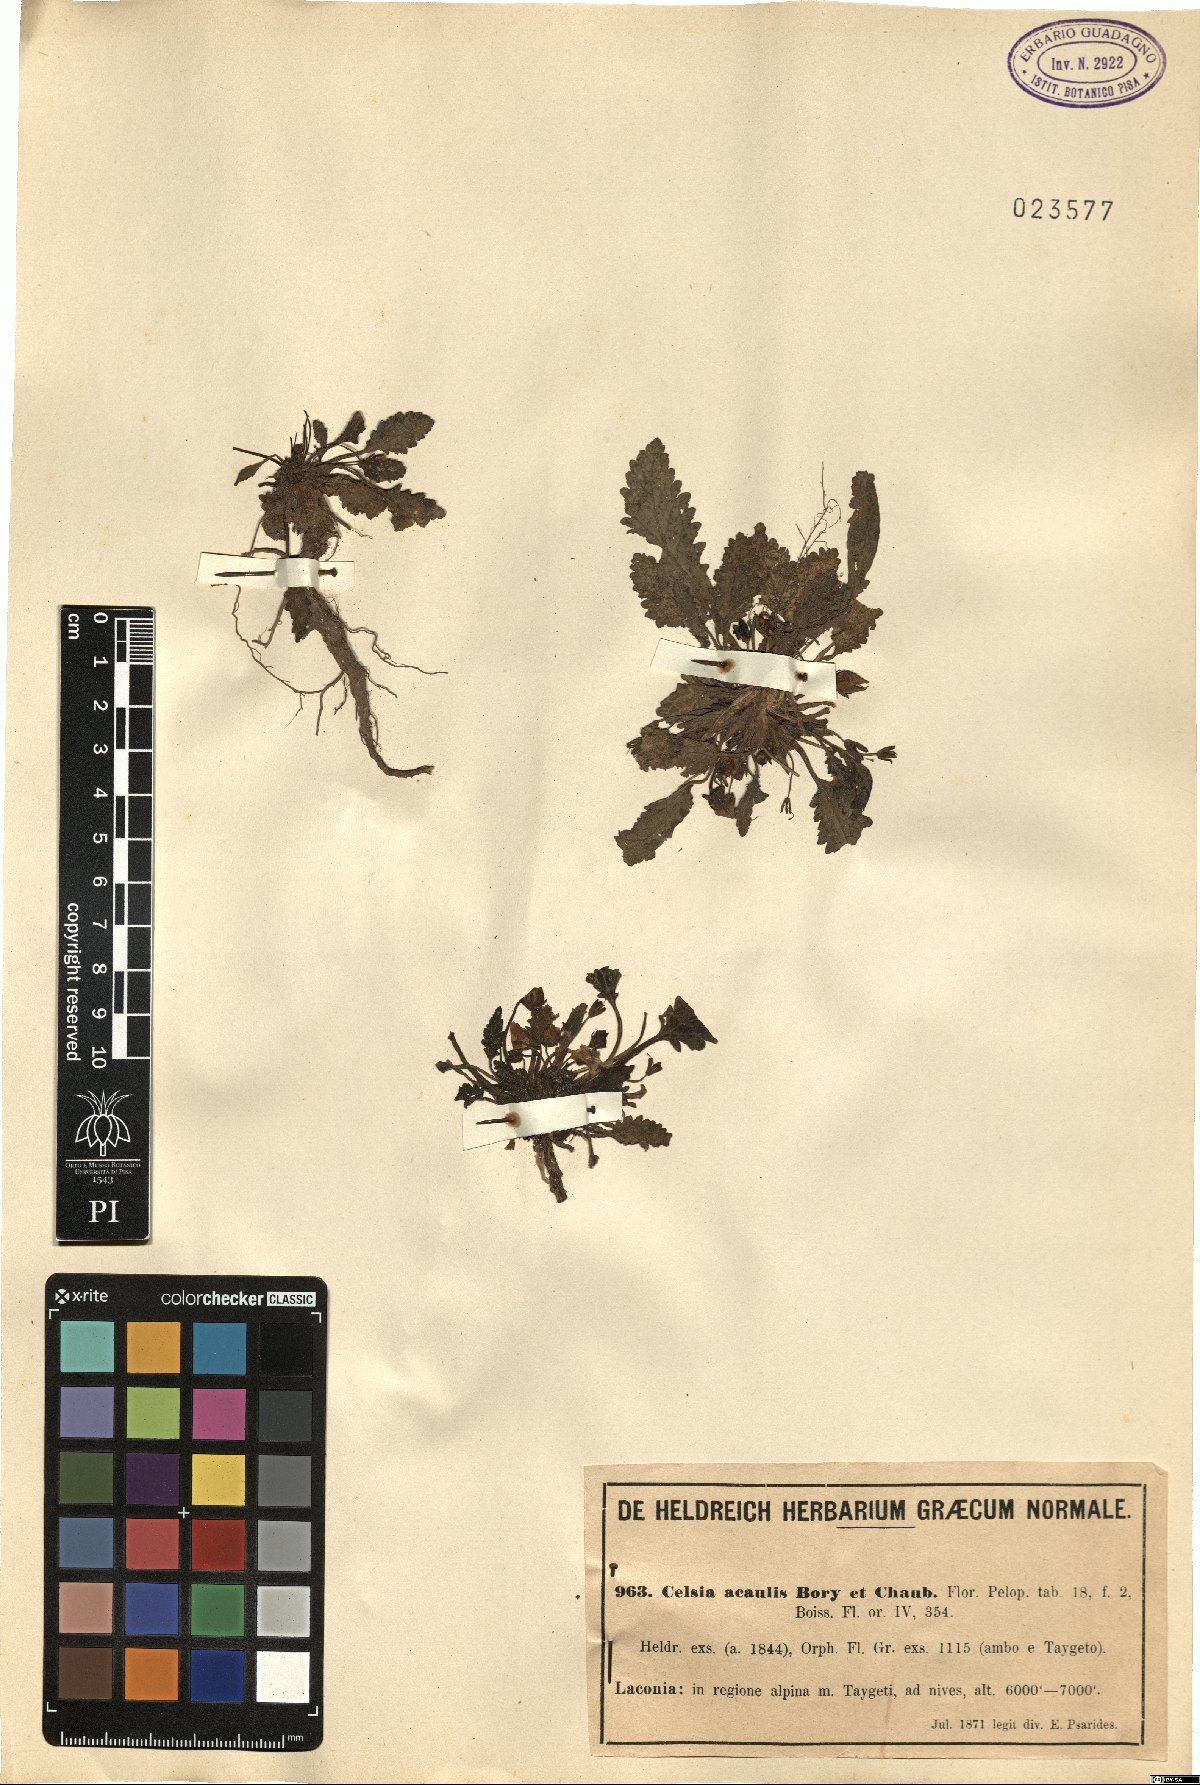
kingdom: Plantae
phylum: Tracheophyta
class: Magnoliopsida
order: Lamiales
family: Scrophulariaceae
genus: Verbascum
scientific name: Verbascum acaule
